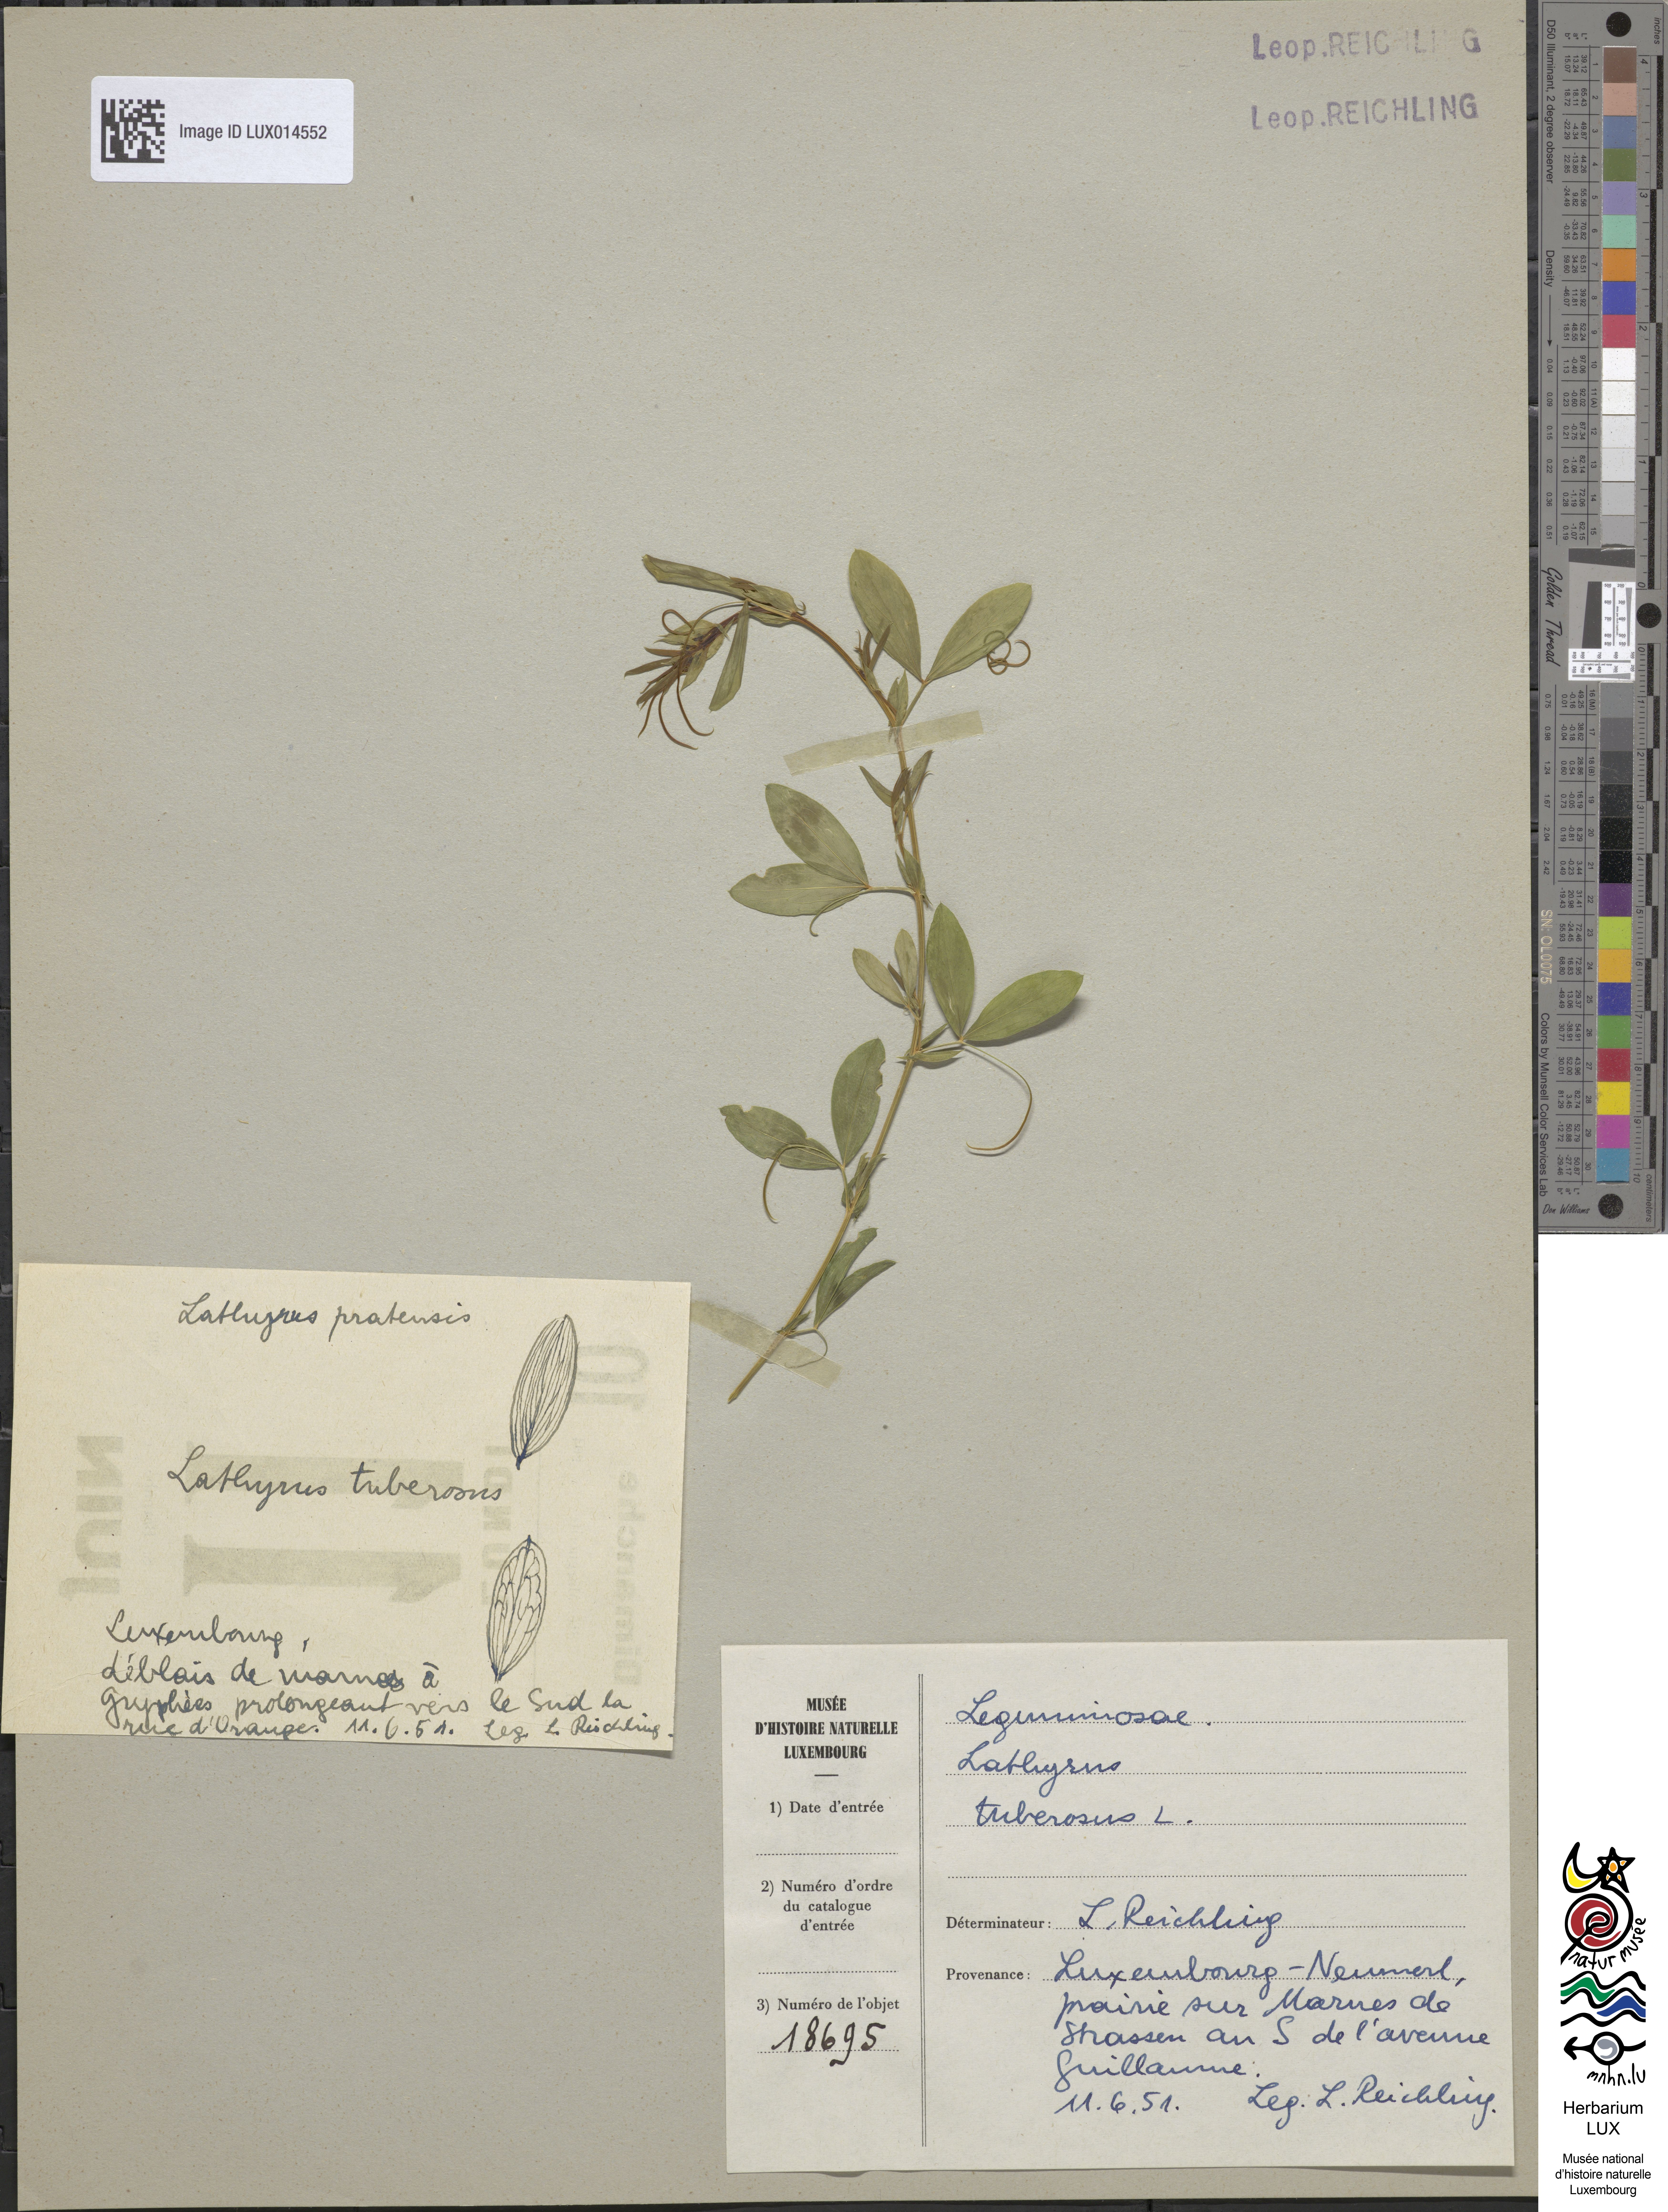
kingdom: Plantae
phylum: Tracheophyta
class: Magnoliopsida
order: Fabales
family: Fabaceae
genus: Lathyrus
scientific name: Lathyrus tuberosus
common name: Tuberous pea
